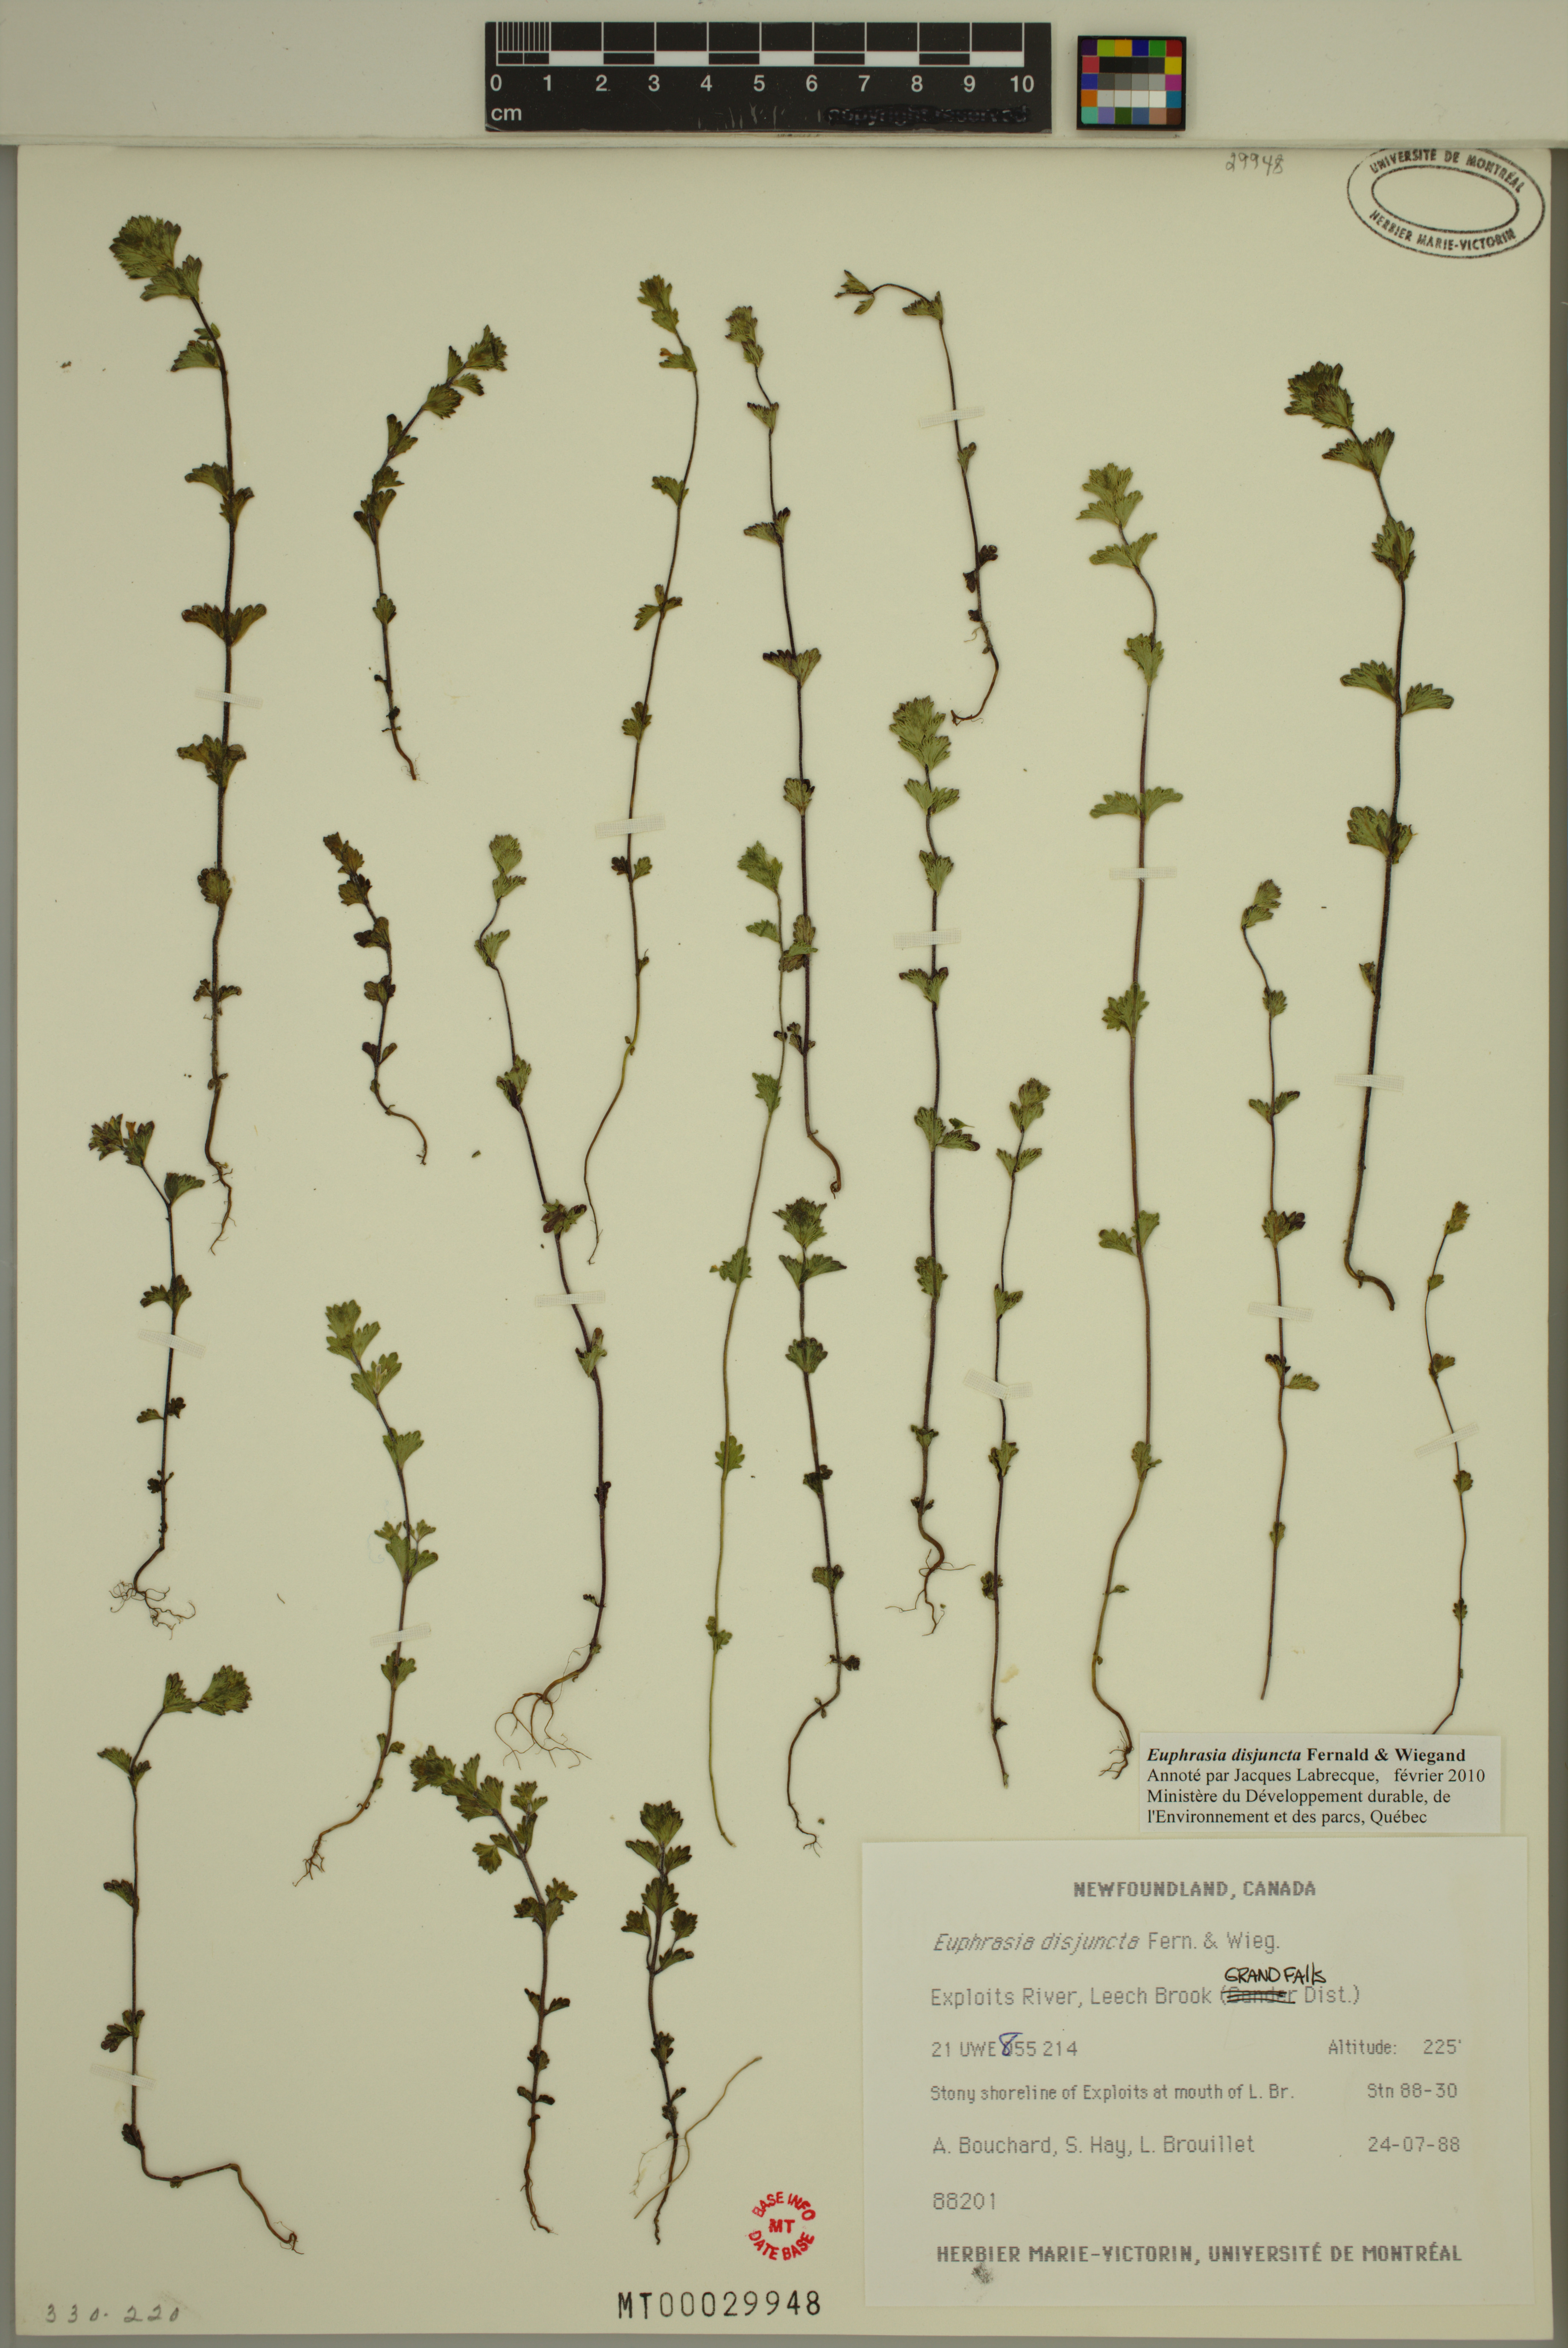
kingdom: Plantae
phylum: Tracheophyta
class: Magnoliopsida
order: Lamiales
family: Orobanchaceae
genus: Euphrasia
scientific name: Euphrasia disjuncta
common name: Polar eyebright
